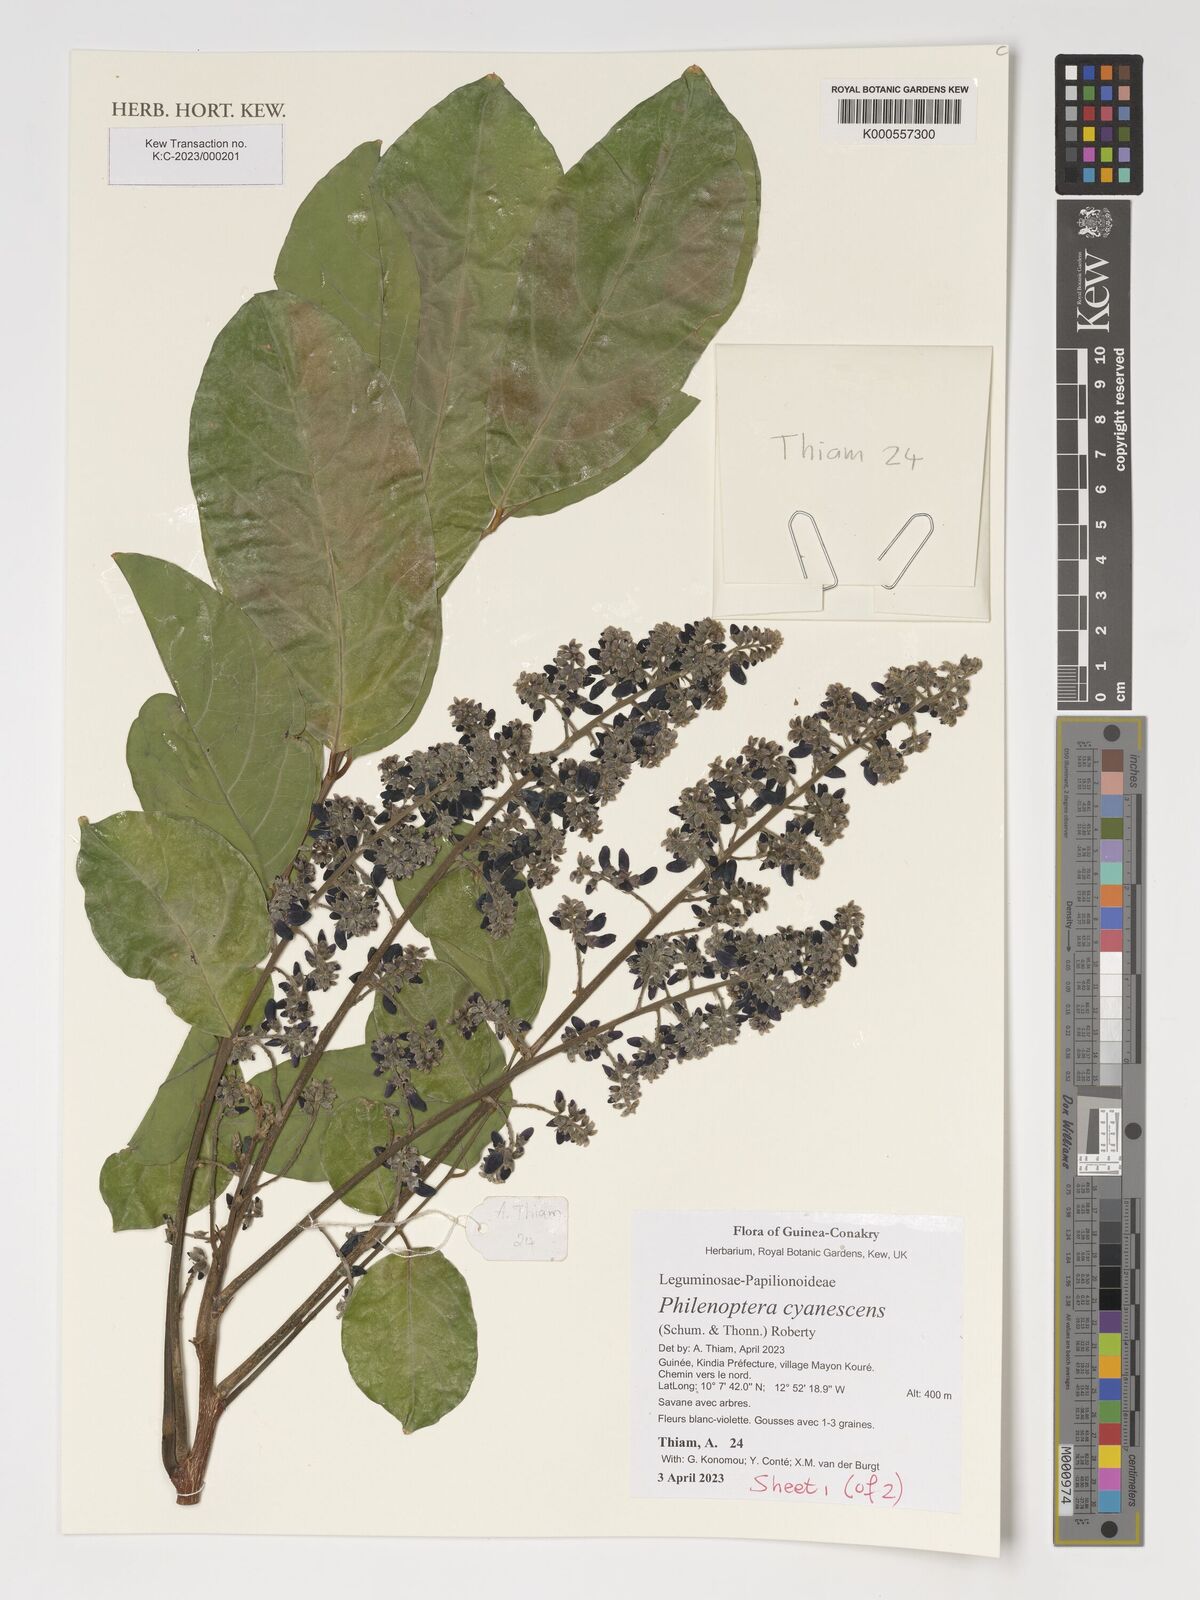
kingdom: Plantae
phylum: Tracheophyta
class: Magnoliopsida
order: Fabales
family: Fabaceae
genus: Philenoptera
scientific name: Philenoptera cyanescens
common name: West african-indigo
